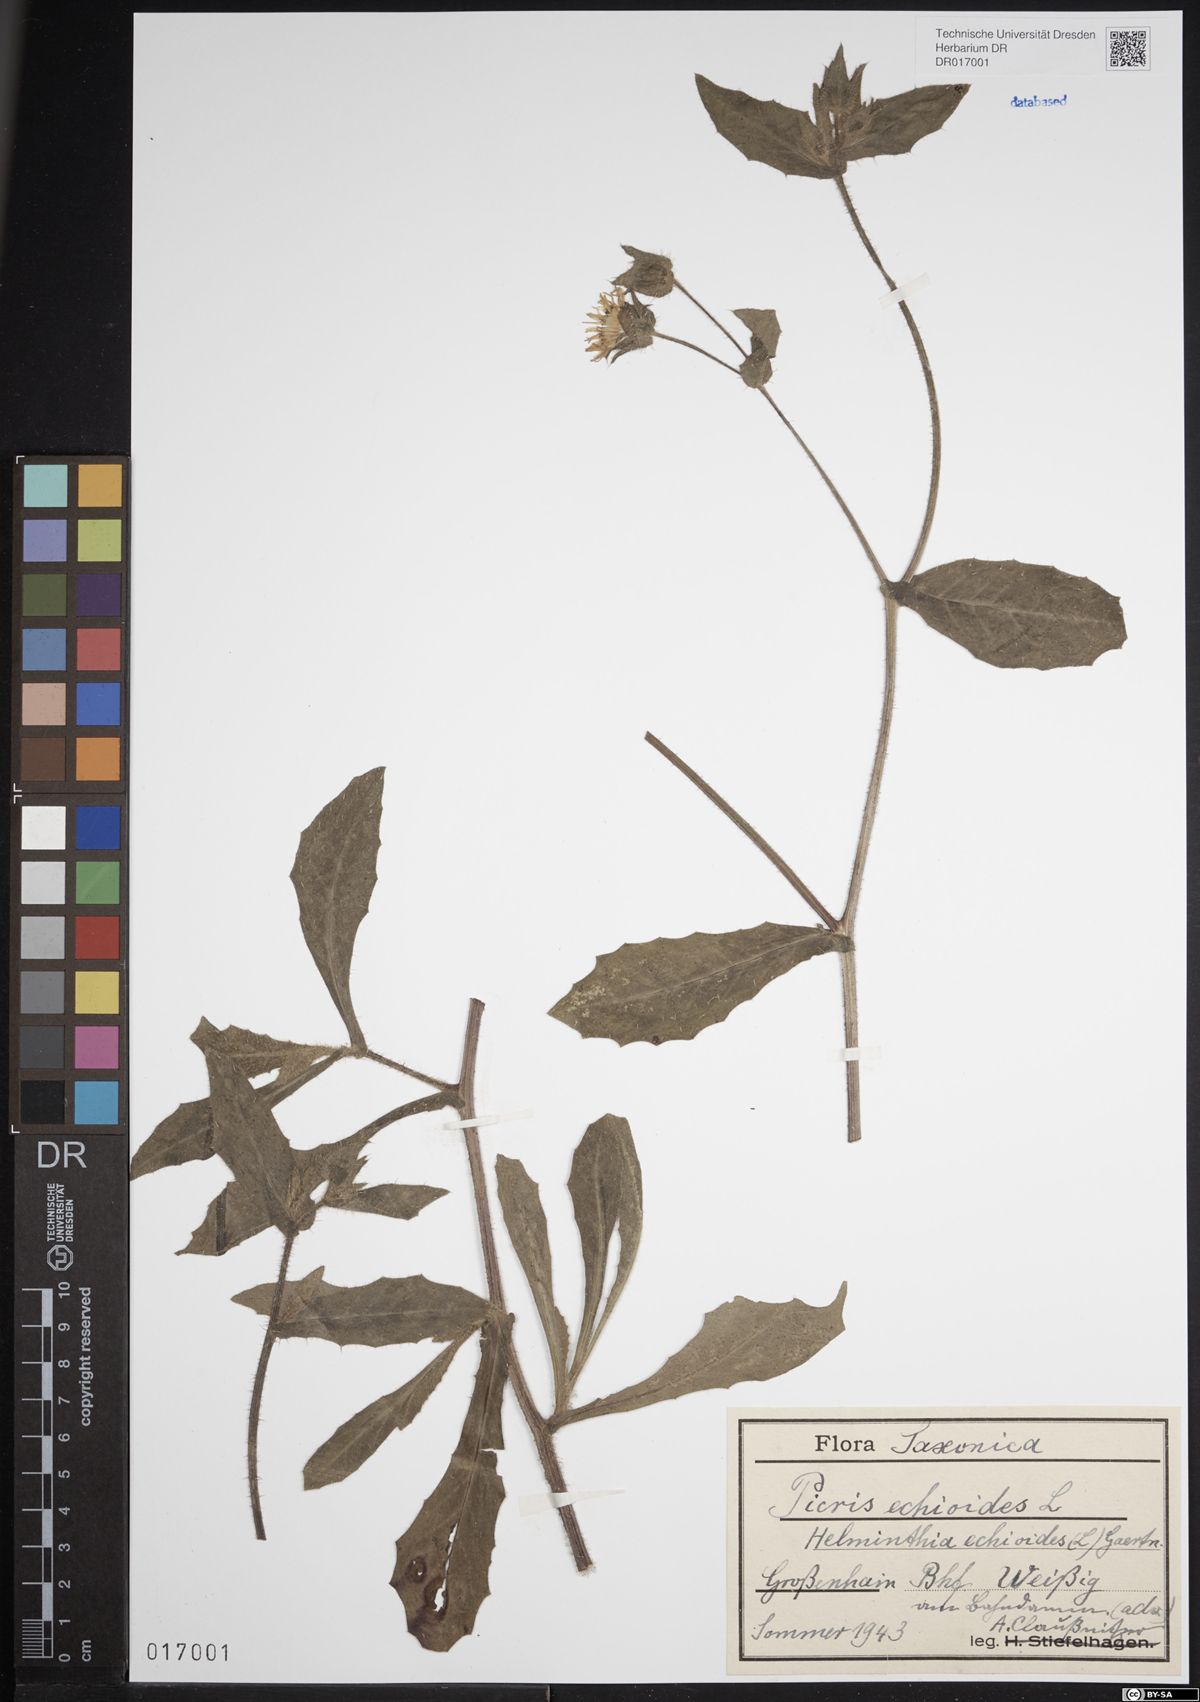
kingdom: Plantae
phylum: Tracheophyta
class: Magnoliopsida
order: Asterales
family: Asteraceae
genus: Helminthotheca
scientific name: Helminthotheca echioides
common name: Ox-tongue
